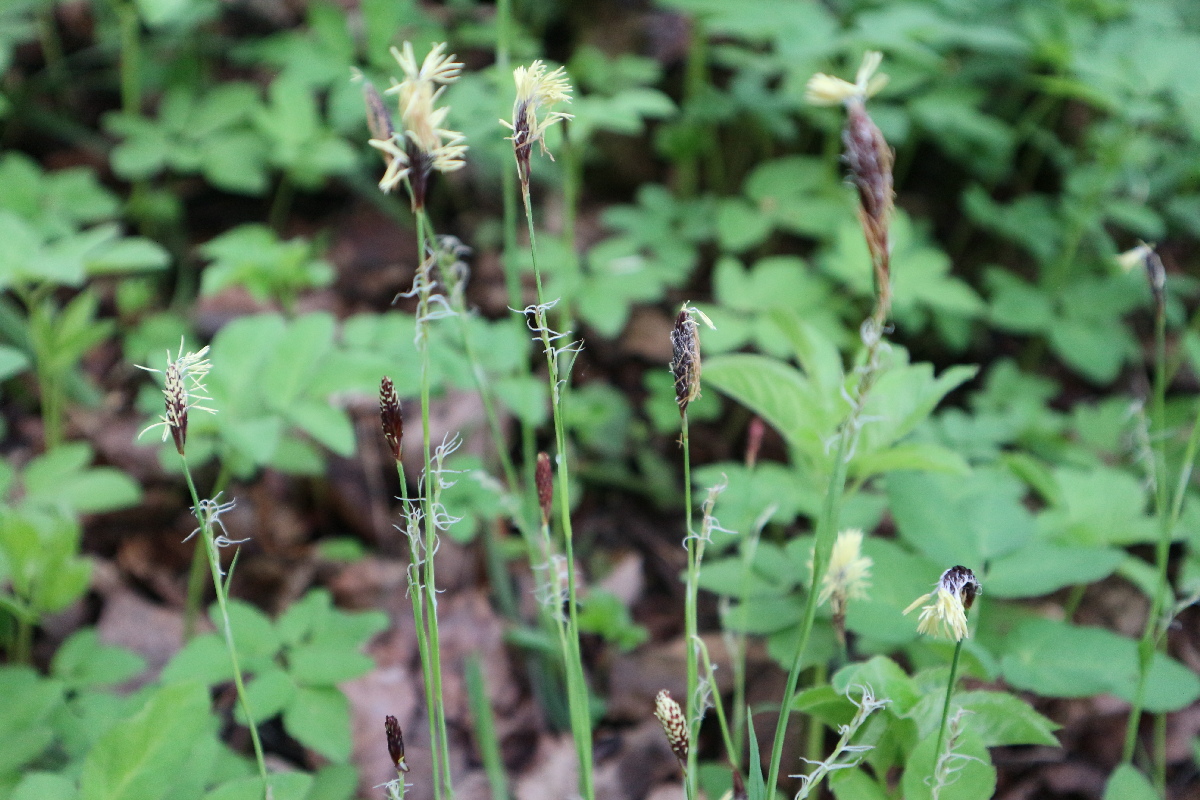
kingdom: Plantae
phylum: Tracheophyta
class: Liliopsida
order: Poales
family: Cyperaceae
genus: Carex
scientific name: Carex pilosa
